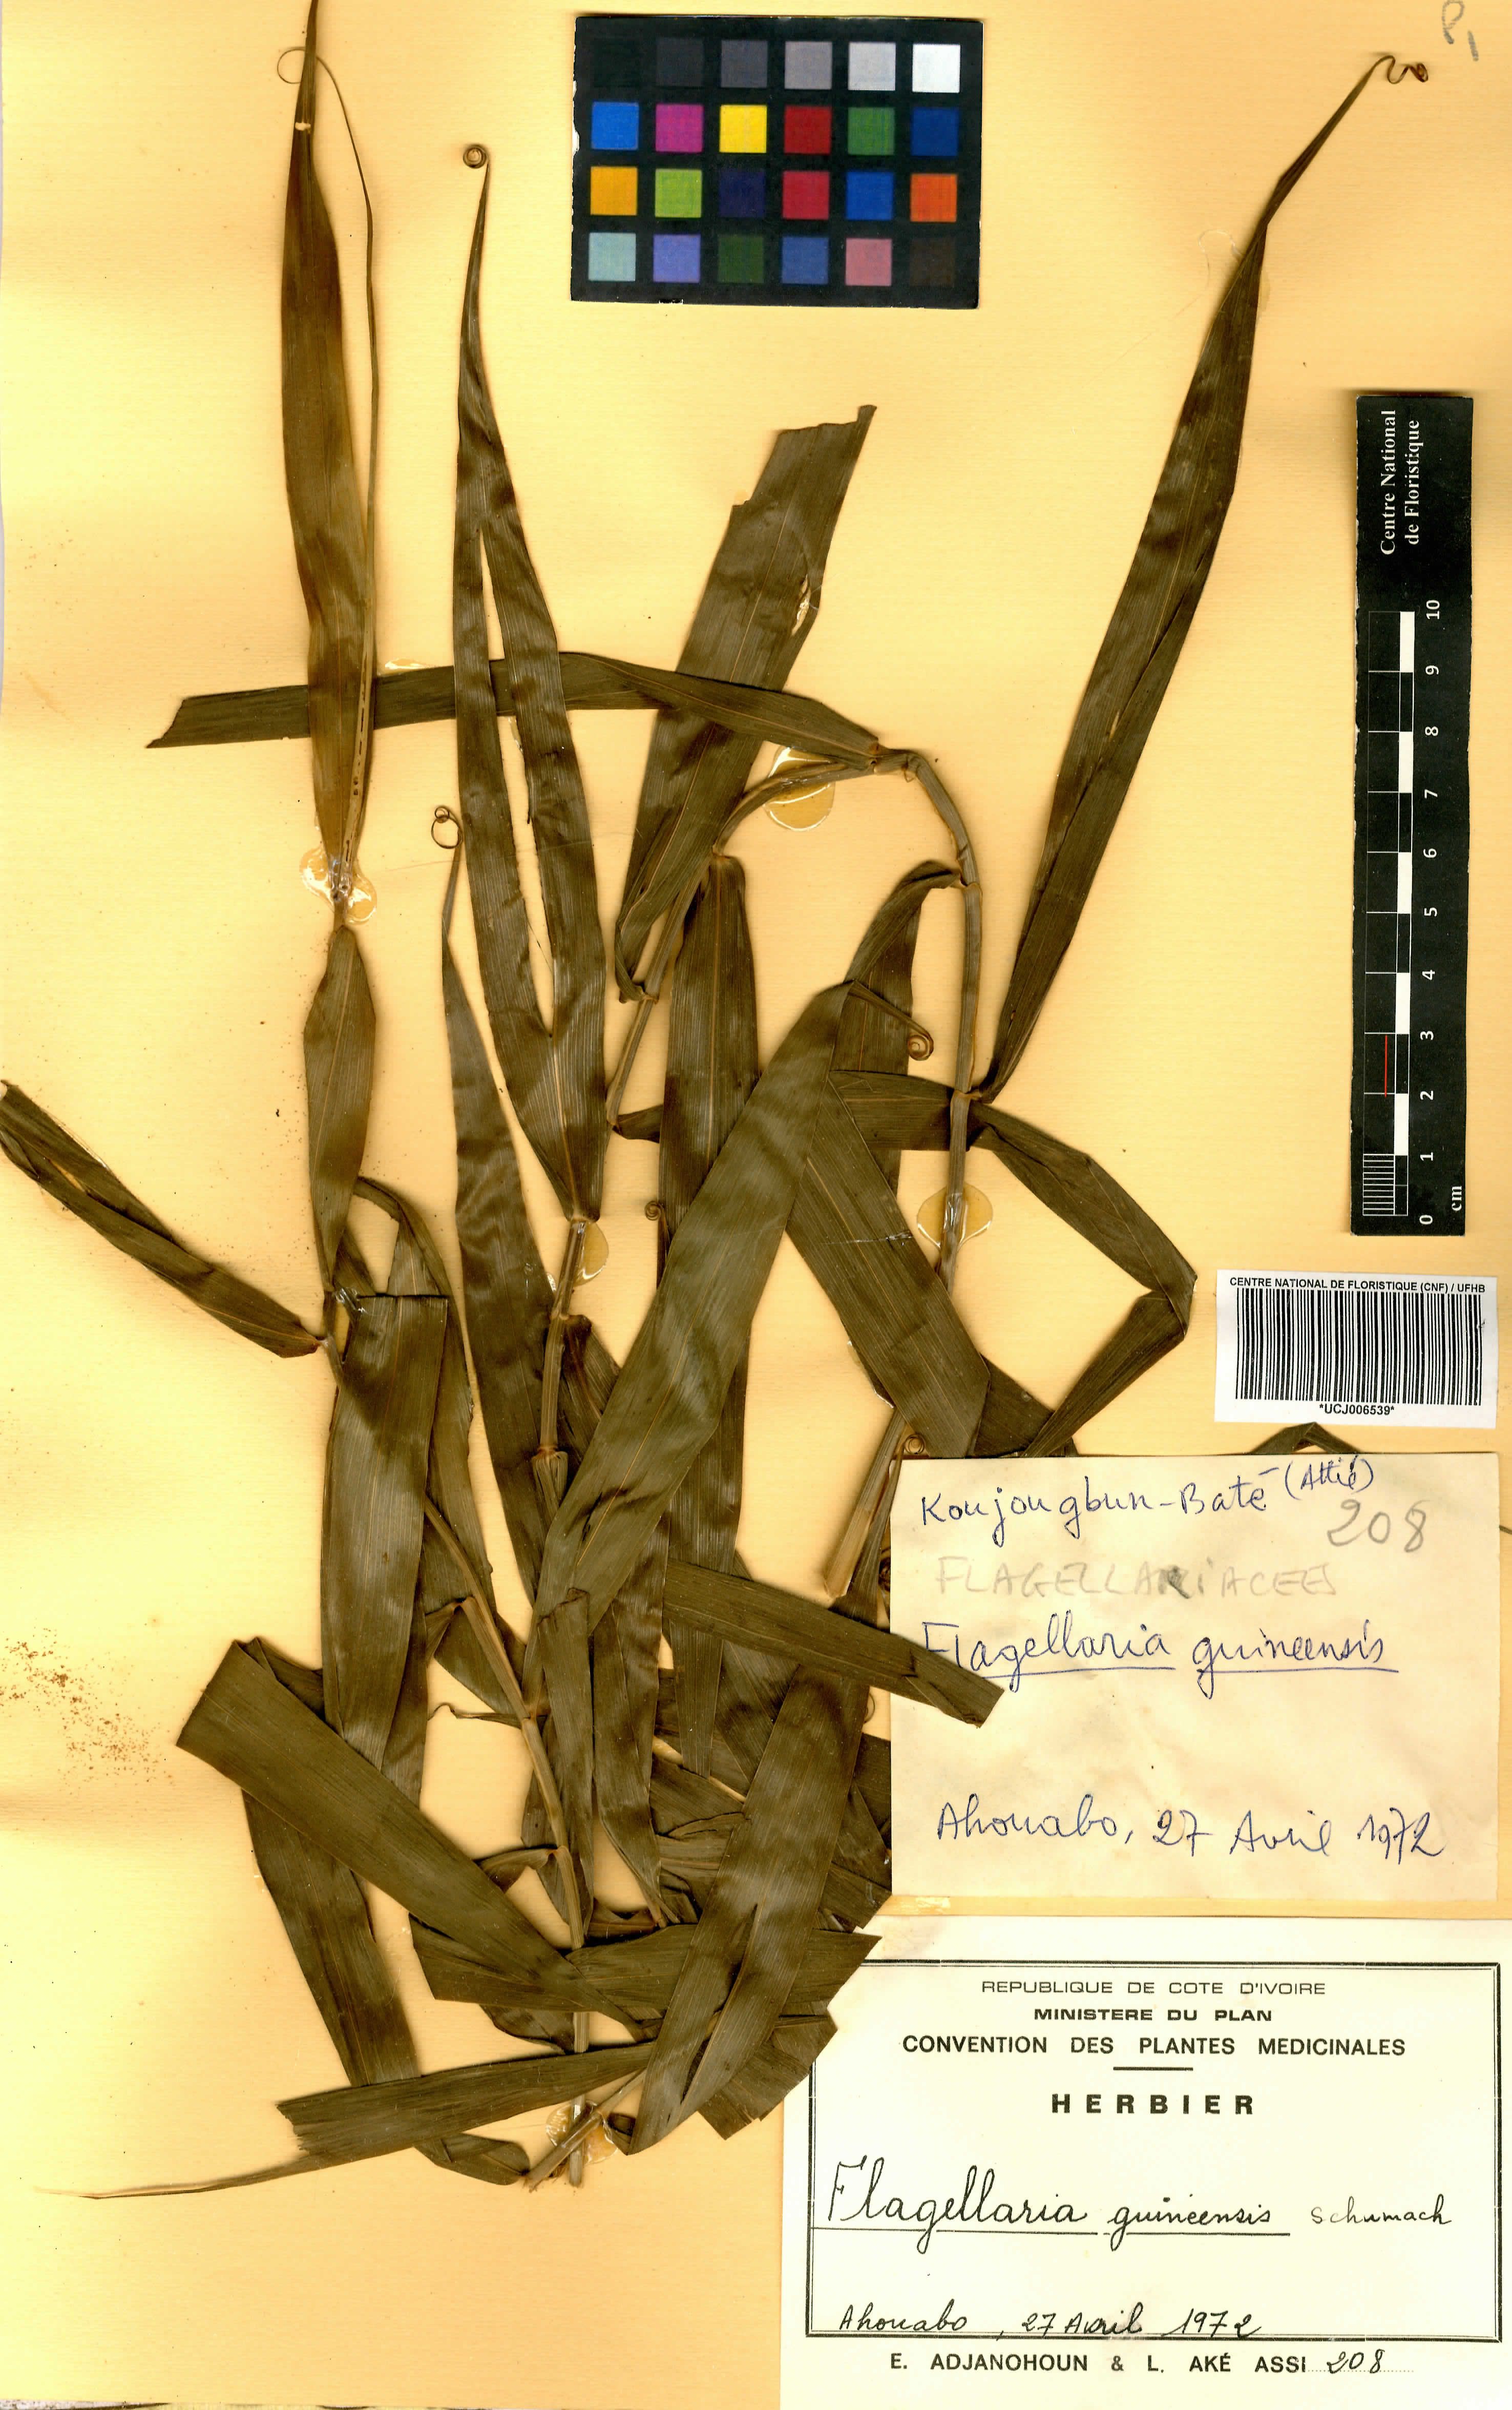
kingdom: Plantae
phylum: Tracheophyta
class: Liliopsida
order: Poales
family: Flagellariaceae
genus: Flagellaria
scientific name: Flagellaria guineensis
